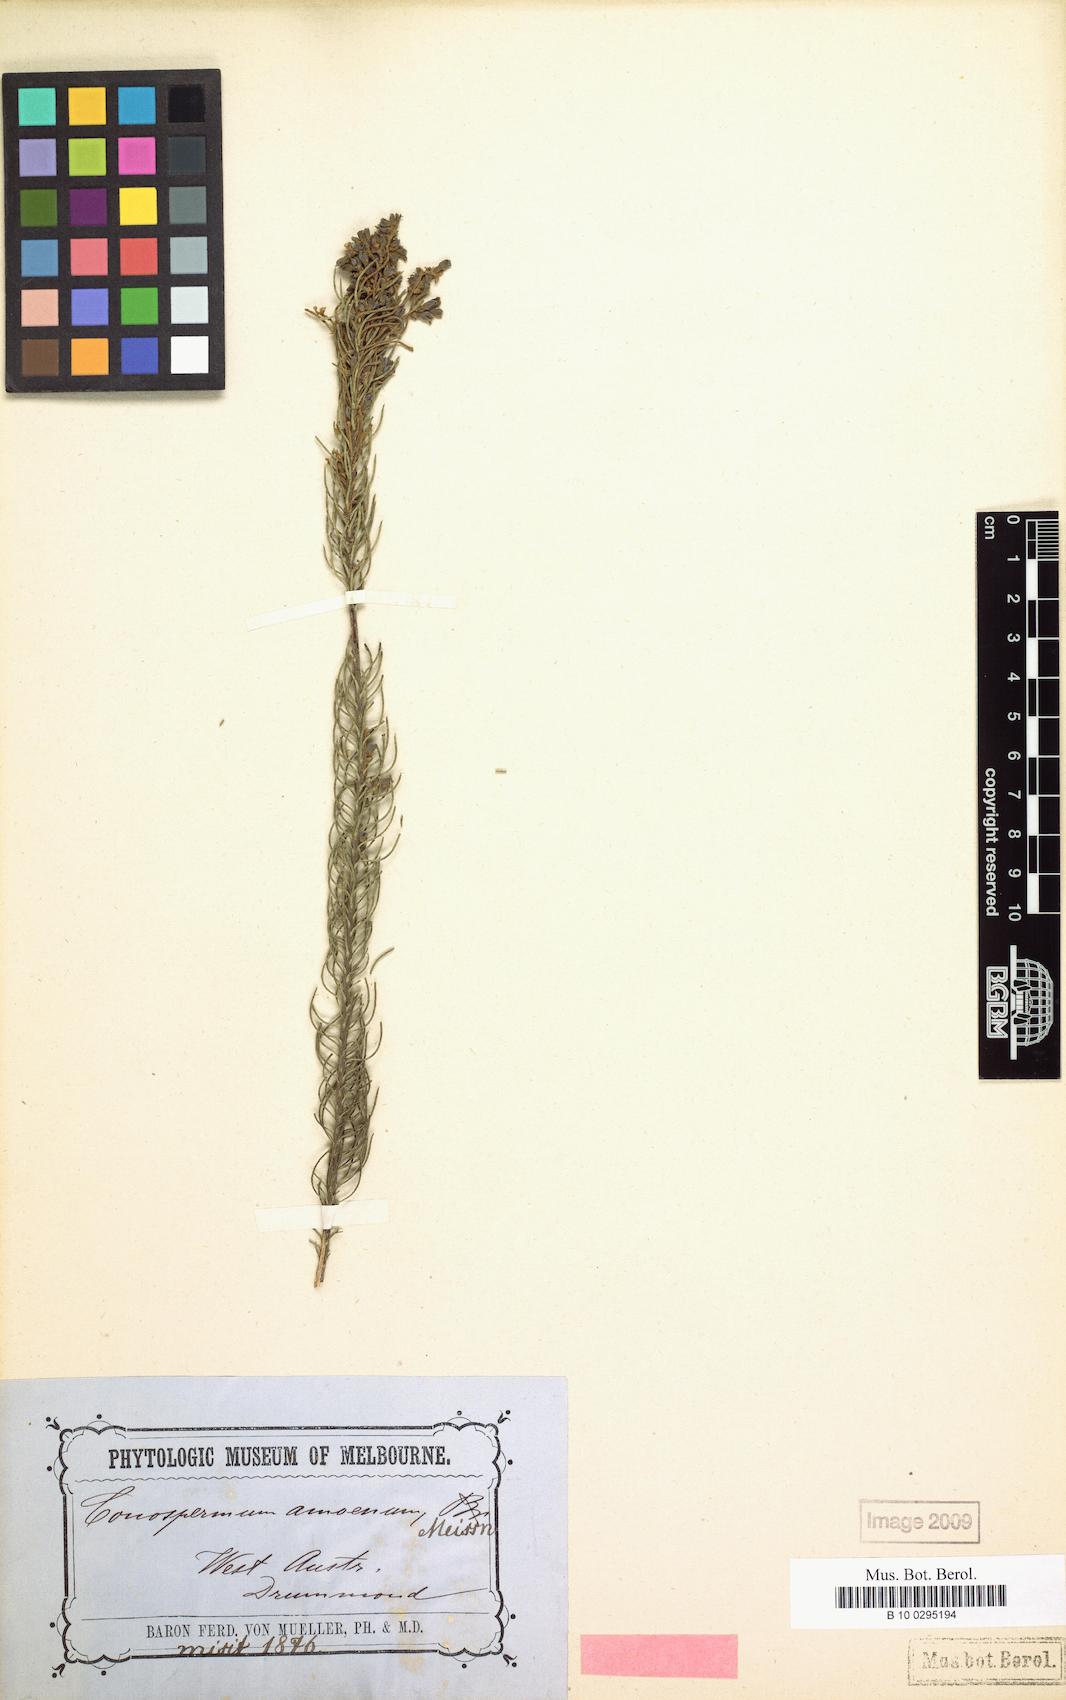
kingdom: Plantae
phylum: Tracheophyta
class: Magnoliopsida
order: Proteales
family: Proteaceae
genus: Conospermum
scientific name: Conospermum amoenum
